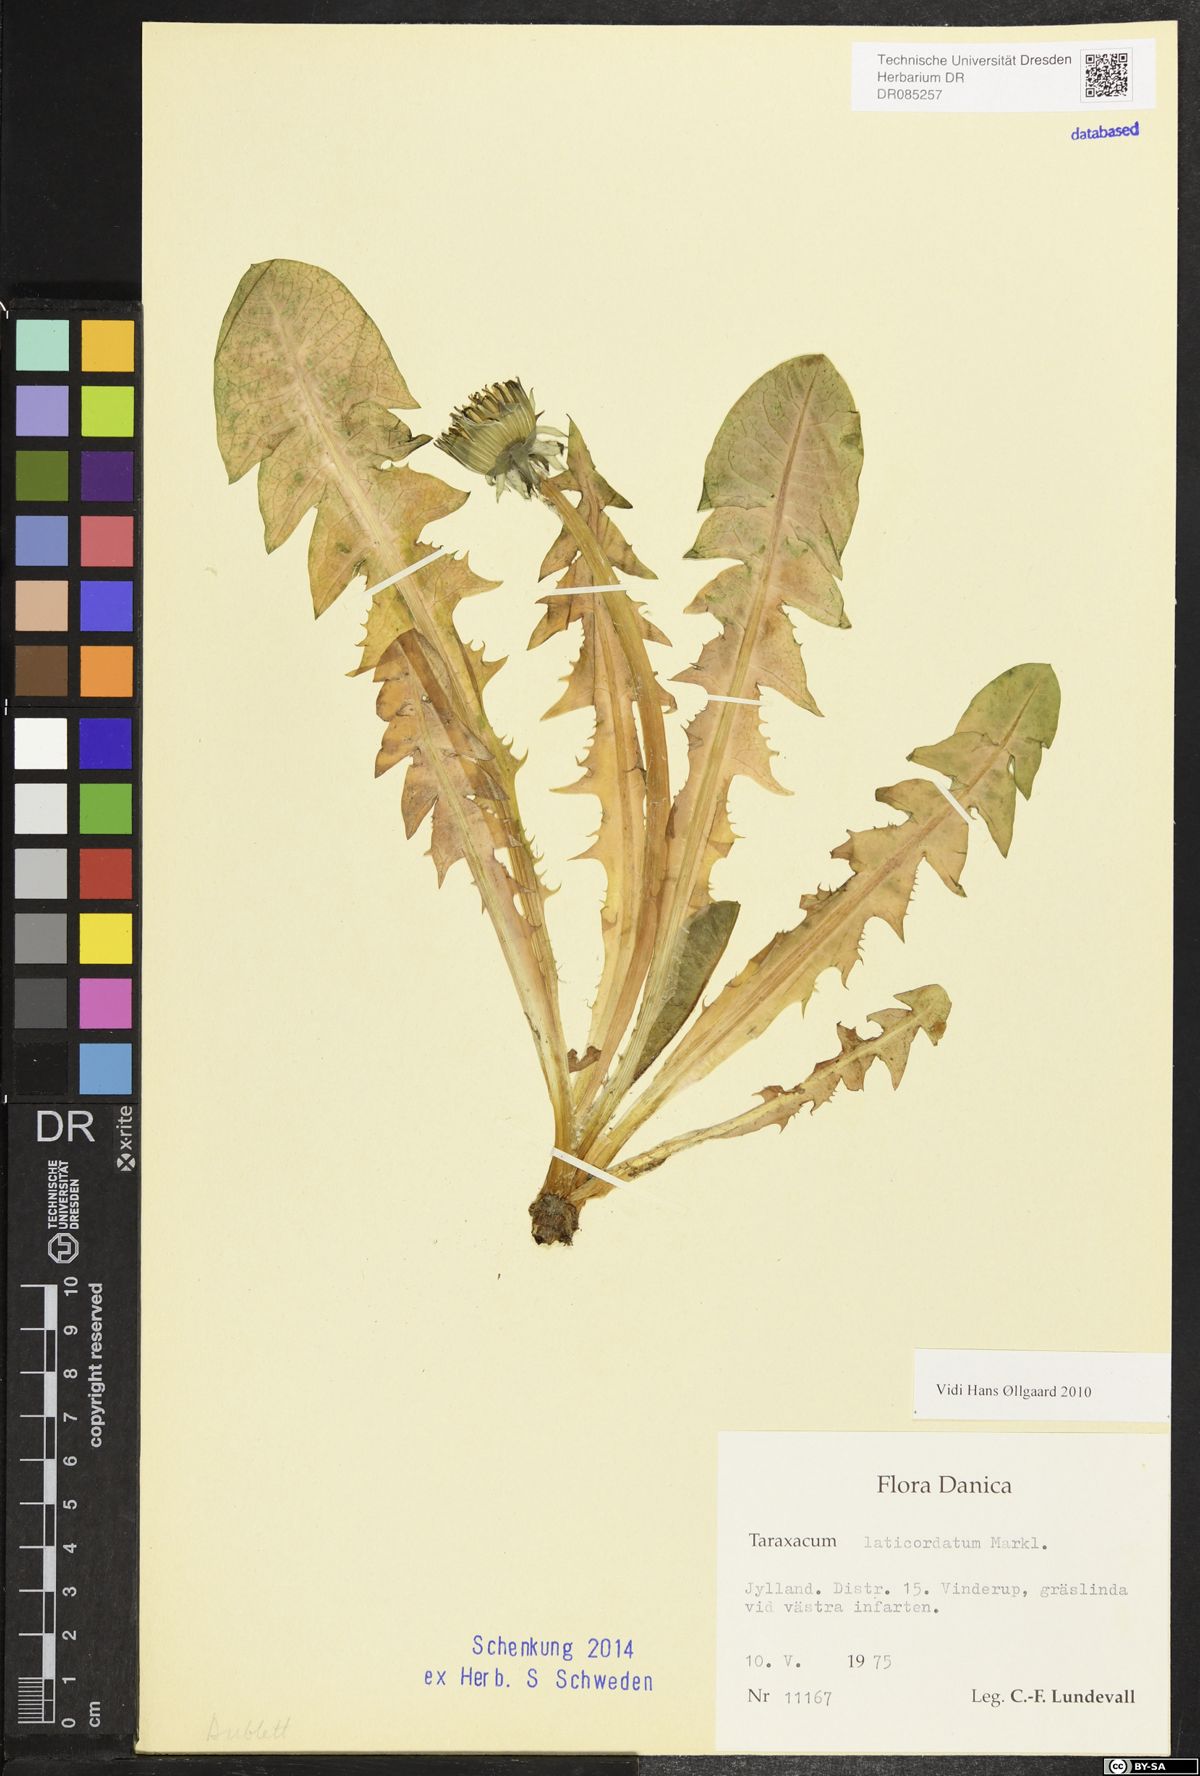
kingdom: Plantae
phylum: Tracheophyta
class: Magnoliopsida
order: Asterales
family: Asteraceae
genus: Taraxacum
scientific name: Taraxacum laticordatum
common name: Decumbent dandelion
